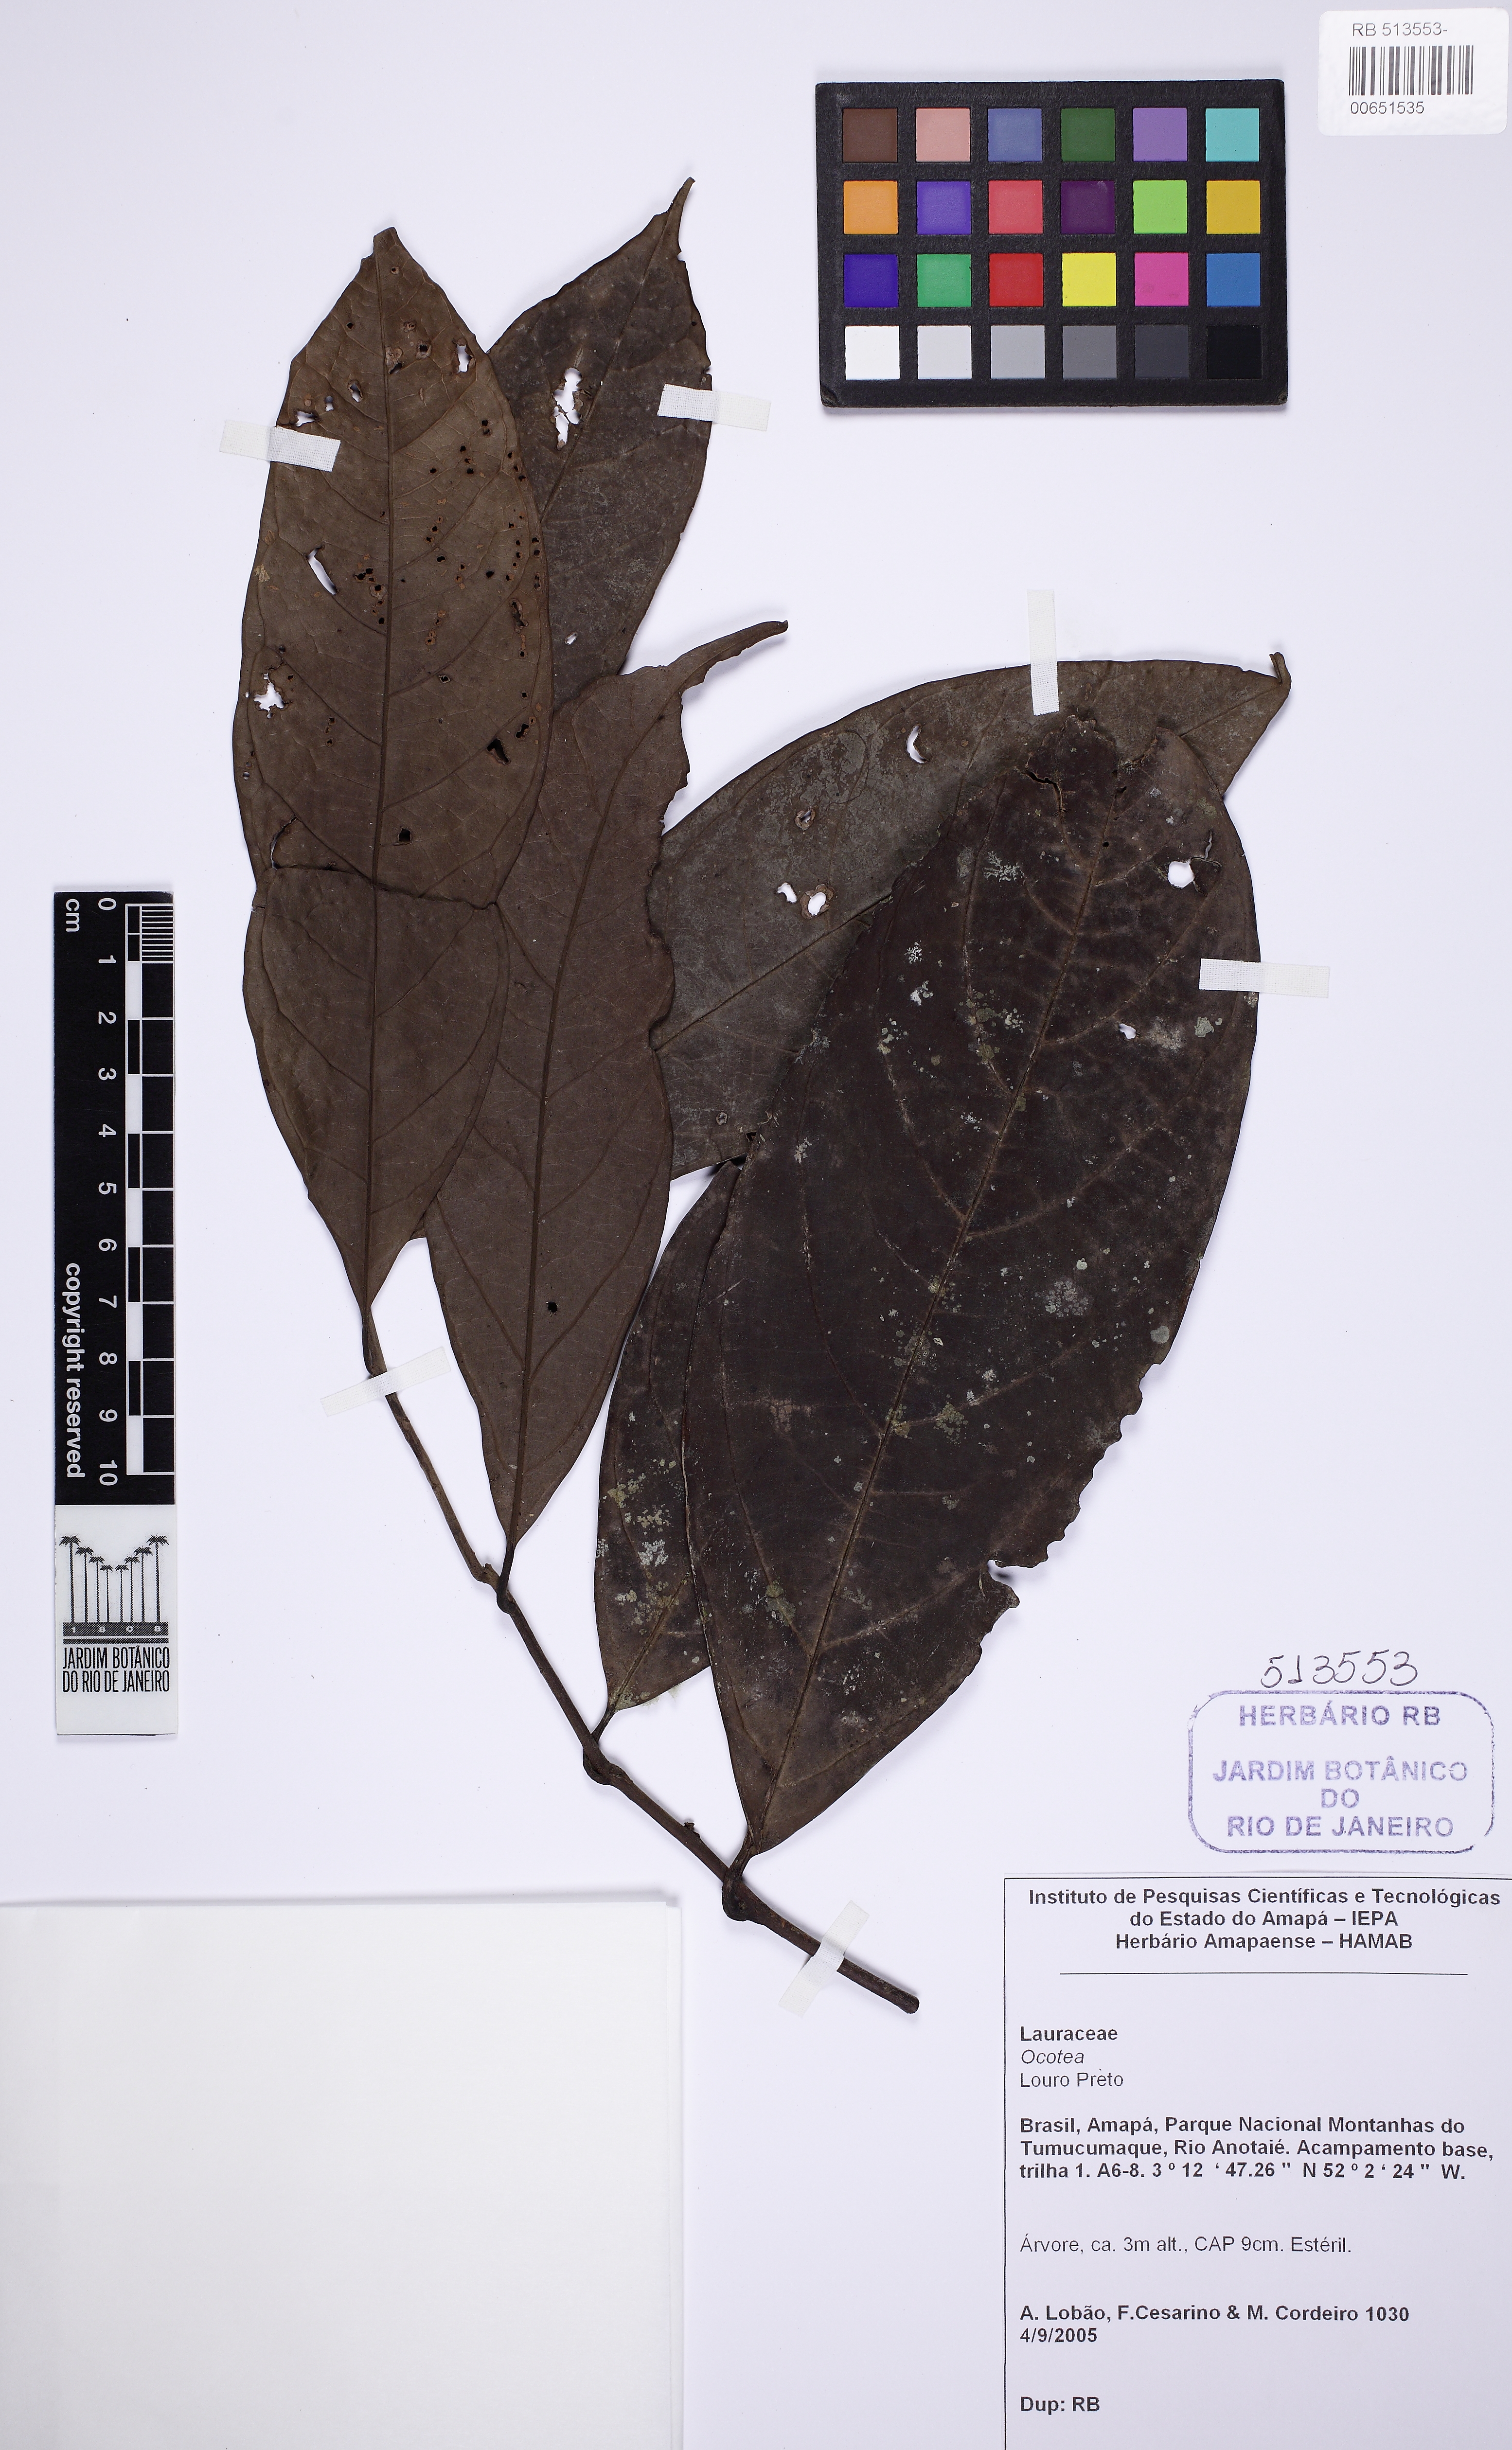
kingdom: Plantae
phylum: Tracheophyta
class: Magnoliopsida
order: Laurales
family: Lauraceae
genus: Ocotea
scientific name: Ocotea
